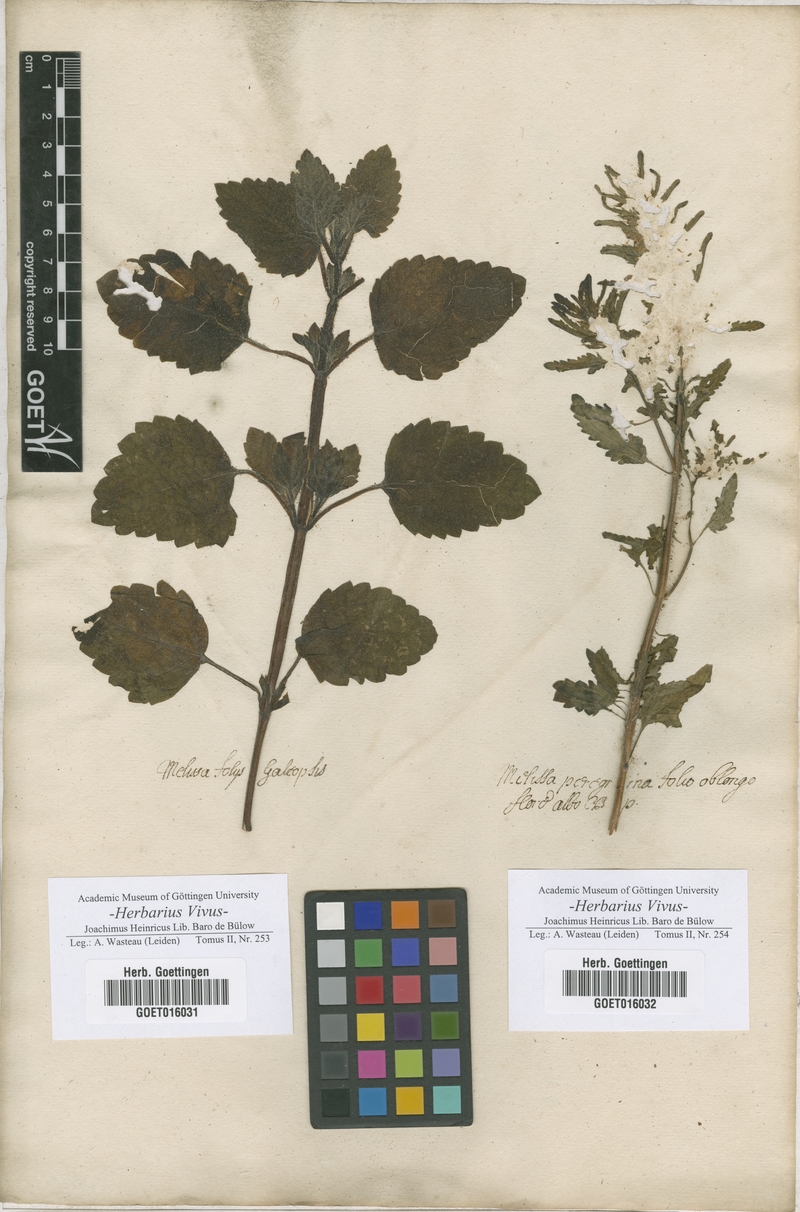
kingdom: Plantae
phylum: Tracheophyta
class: Magnoliopsida
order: Lamiales
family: Lamiaceae
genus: Melissa
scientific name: Melissa
